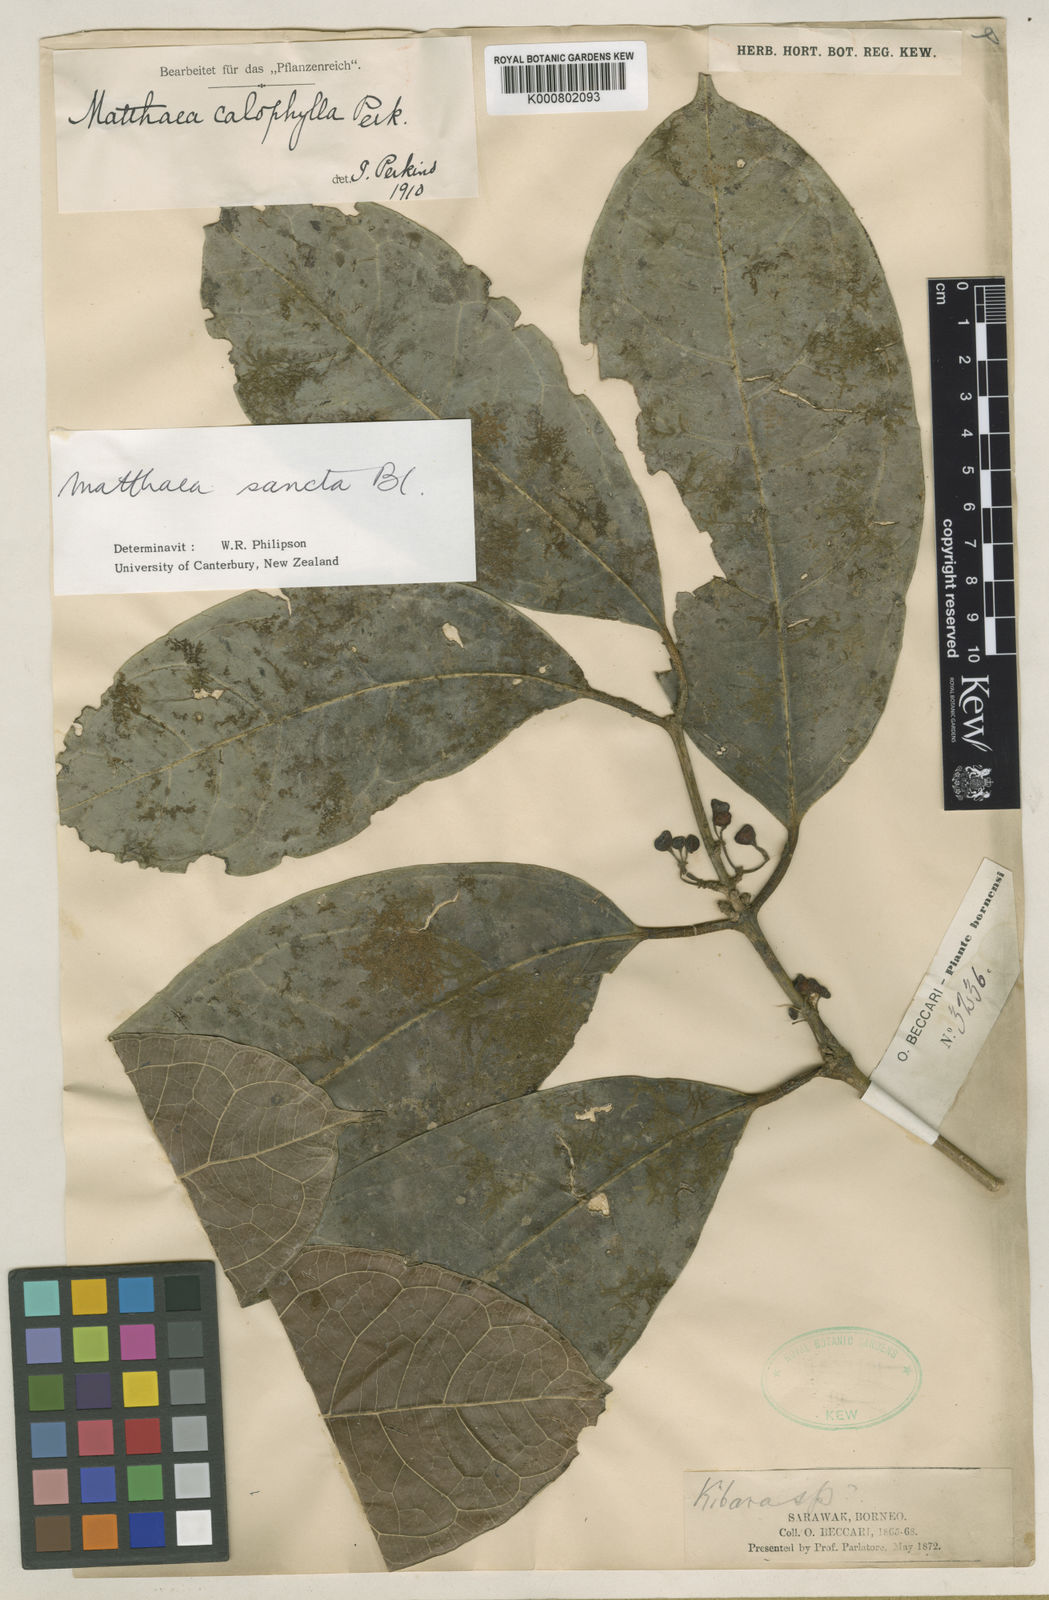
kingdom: Plantae
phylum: Tracheophyta
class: Magnoliopsida
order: Laurales
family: Monimiaceae
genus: Matthaea
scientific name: Matthaea sancta
